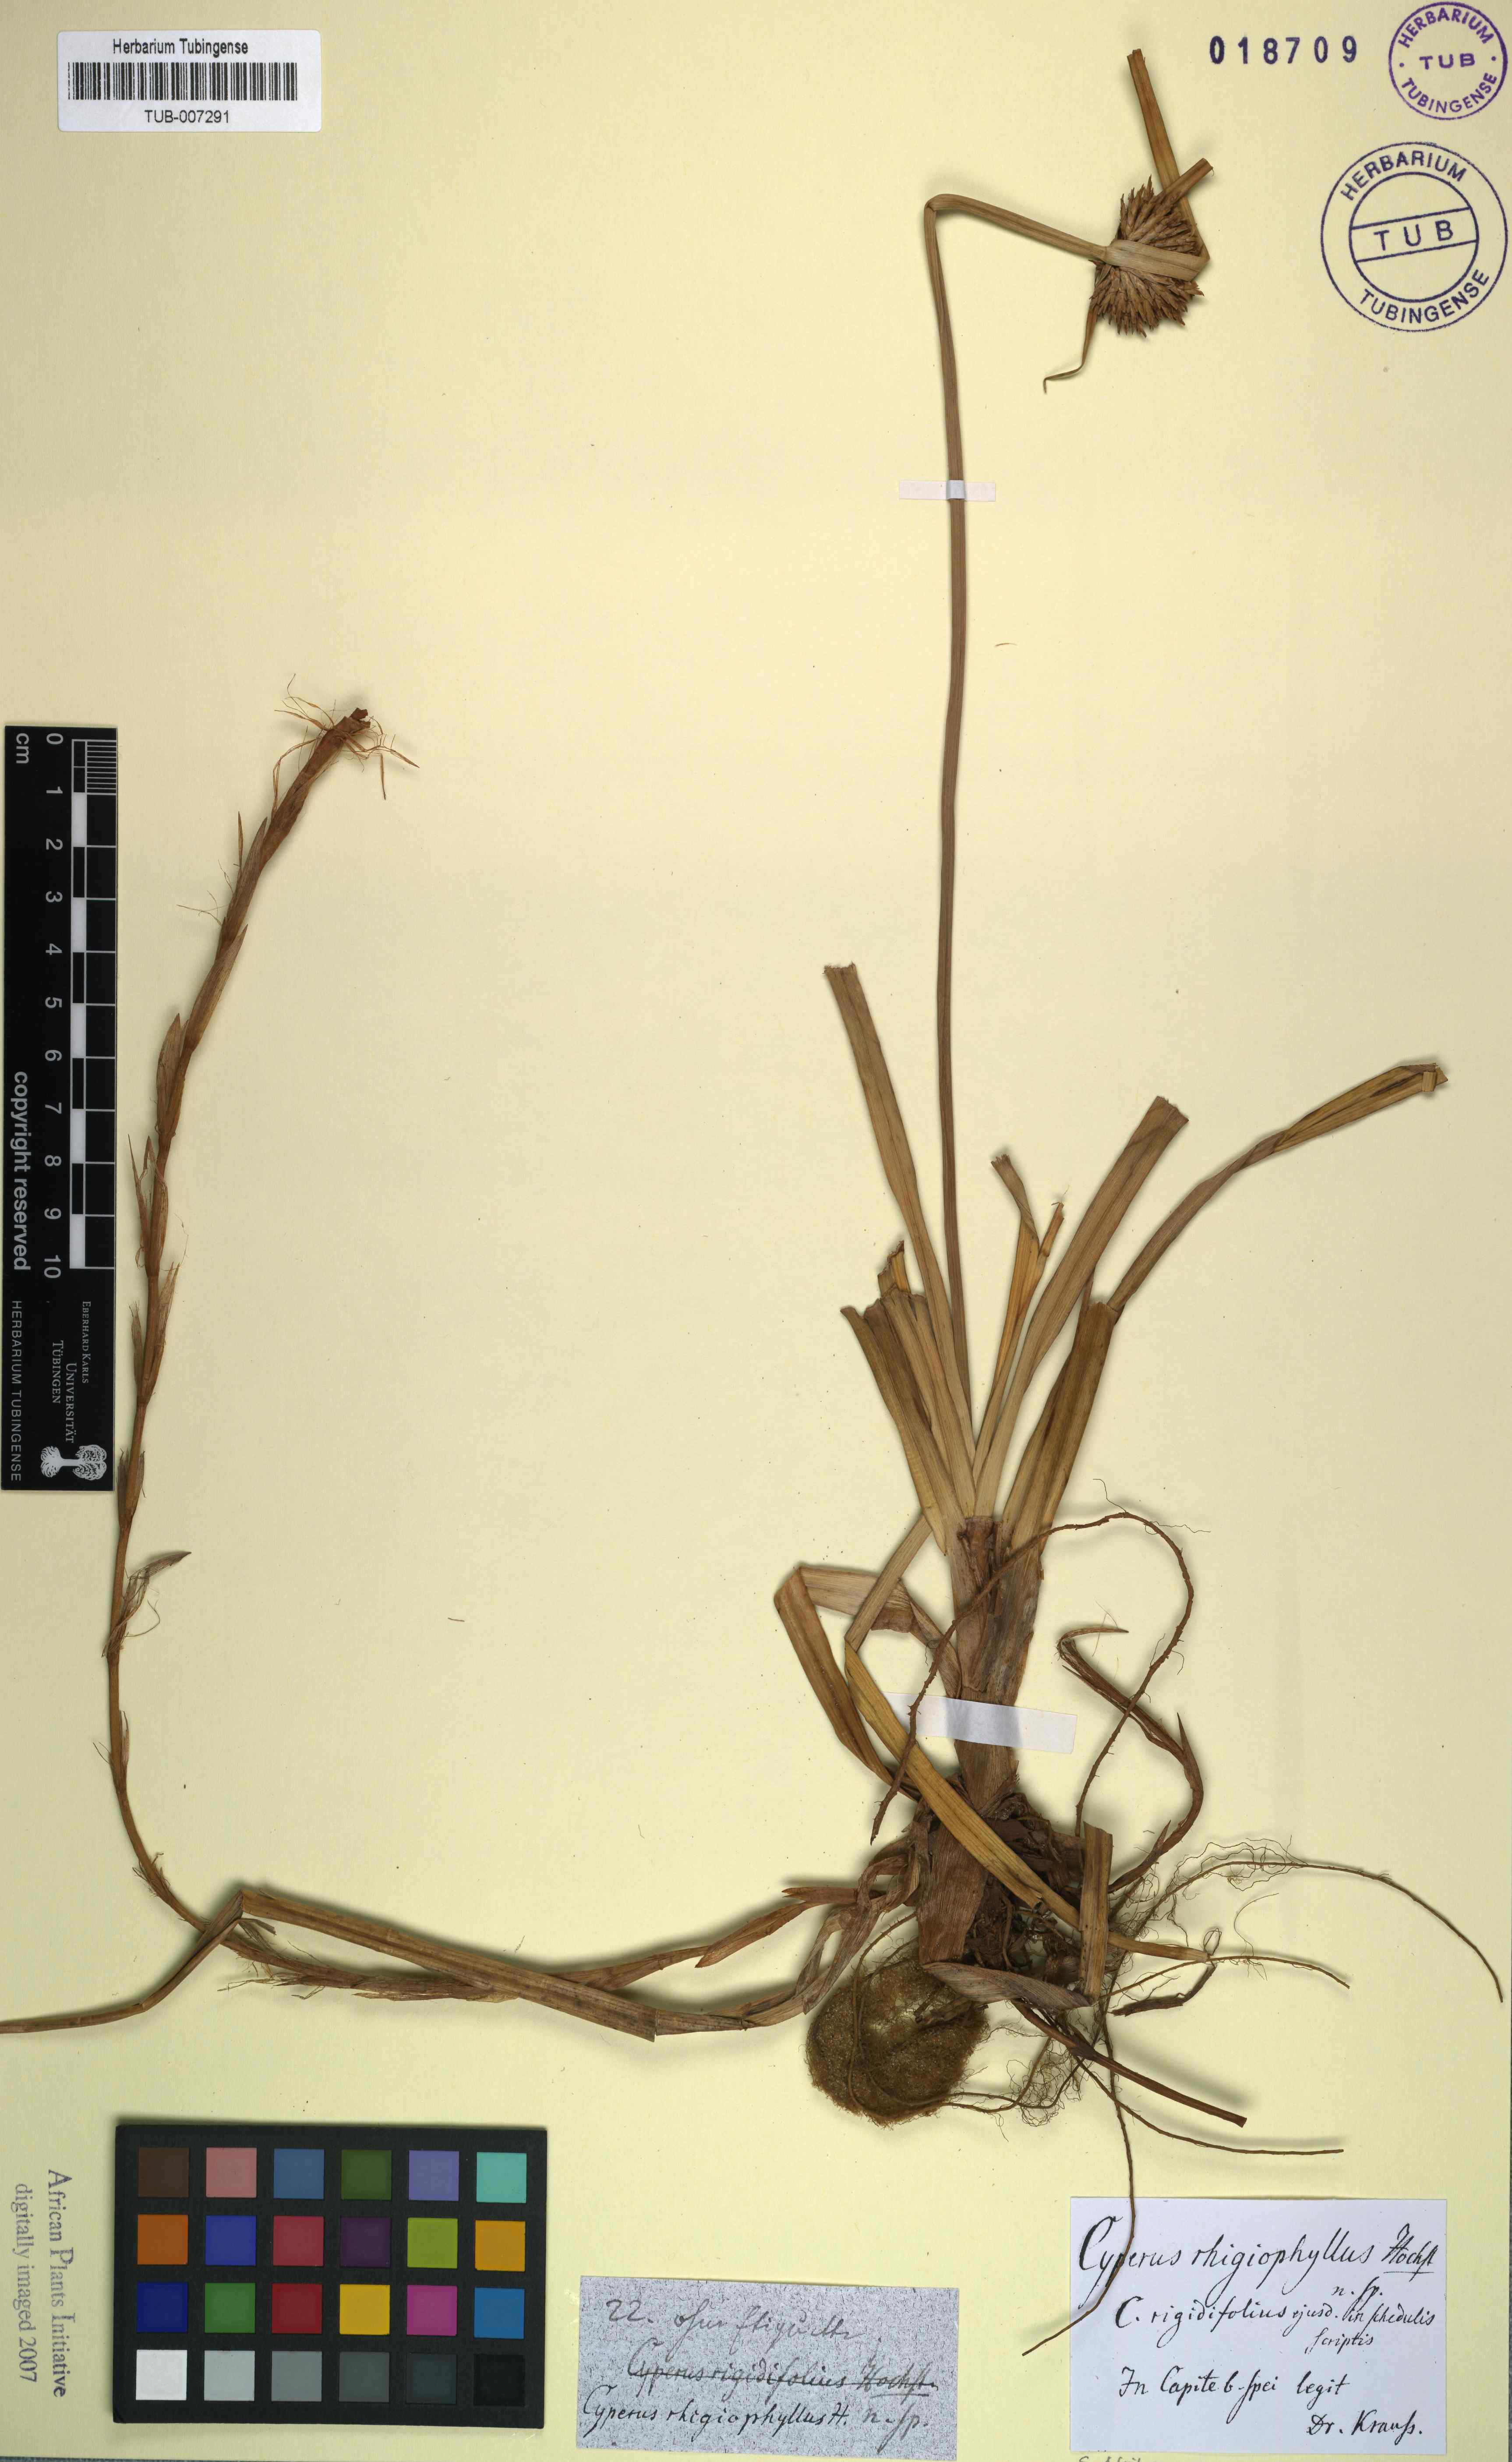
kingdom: Plantae
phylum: Tracheophyta
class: Liliopsida
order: Poales
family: Cyperaceae
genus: Cyperus
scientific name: Cyperus rhigiophyllus
